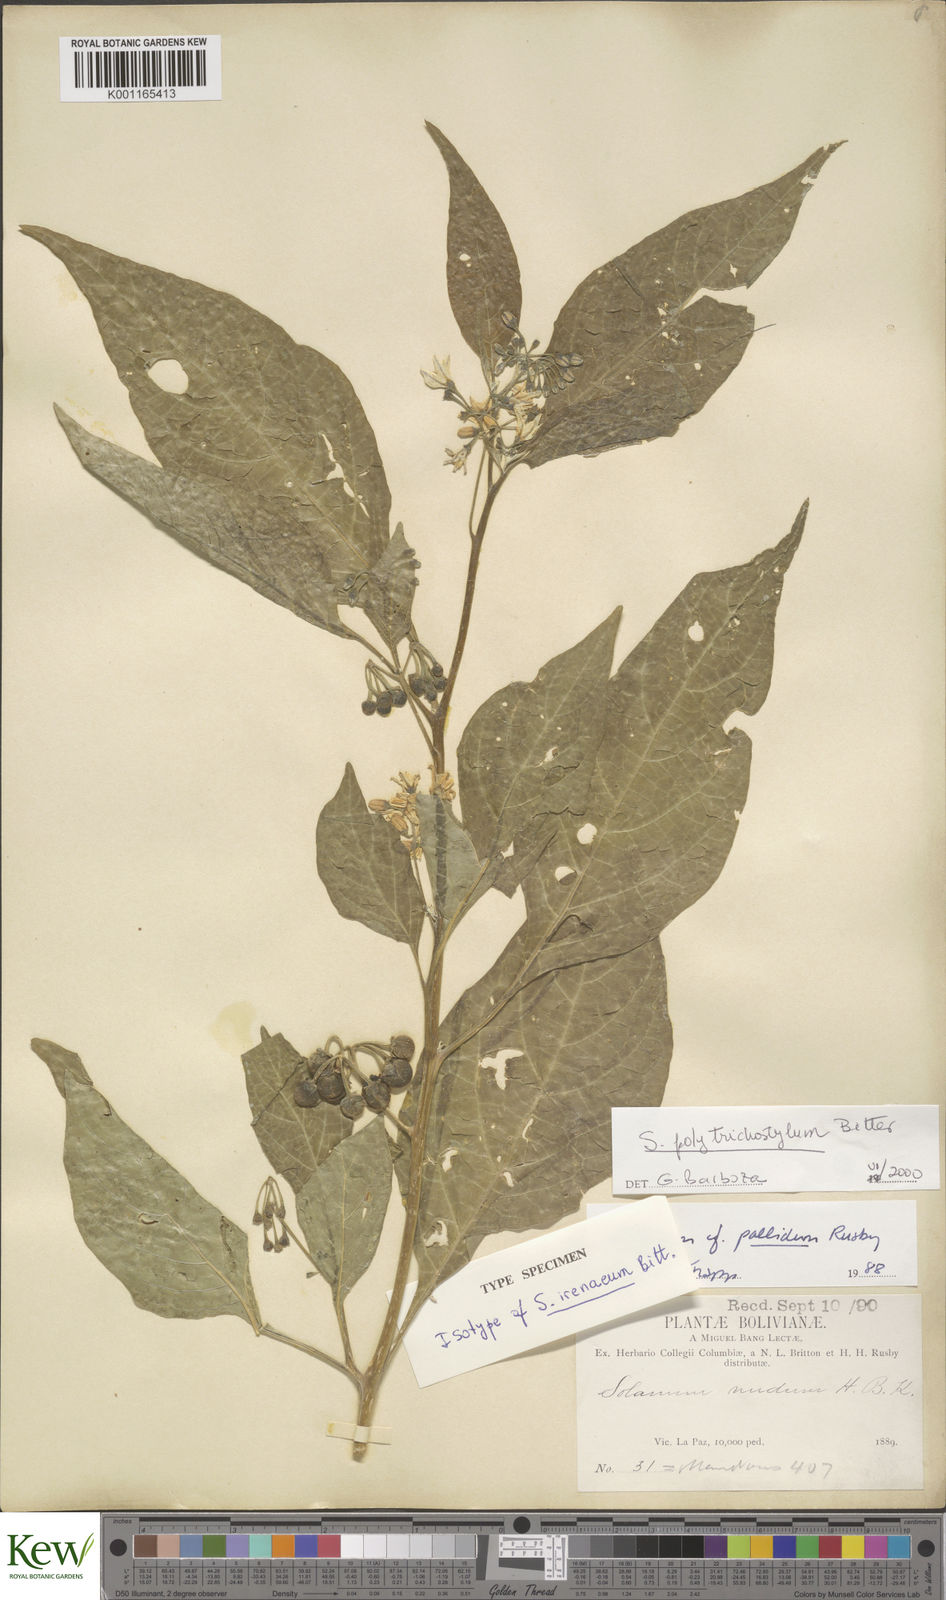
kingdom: Plantae
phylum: Tracheophyta
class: Magnoliopsida
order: Solanales
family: Solanaceae
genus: Solanum
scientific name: Solanum polytrichostylum
